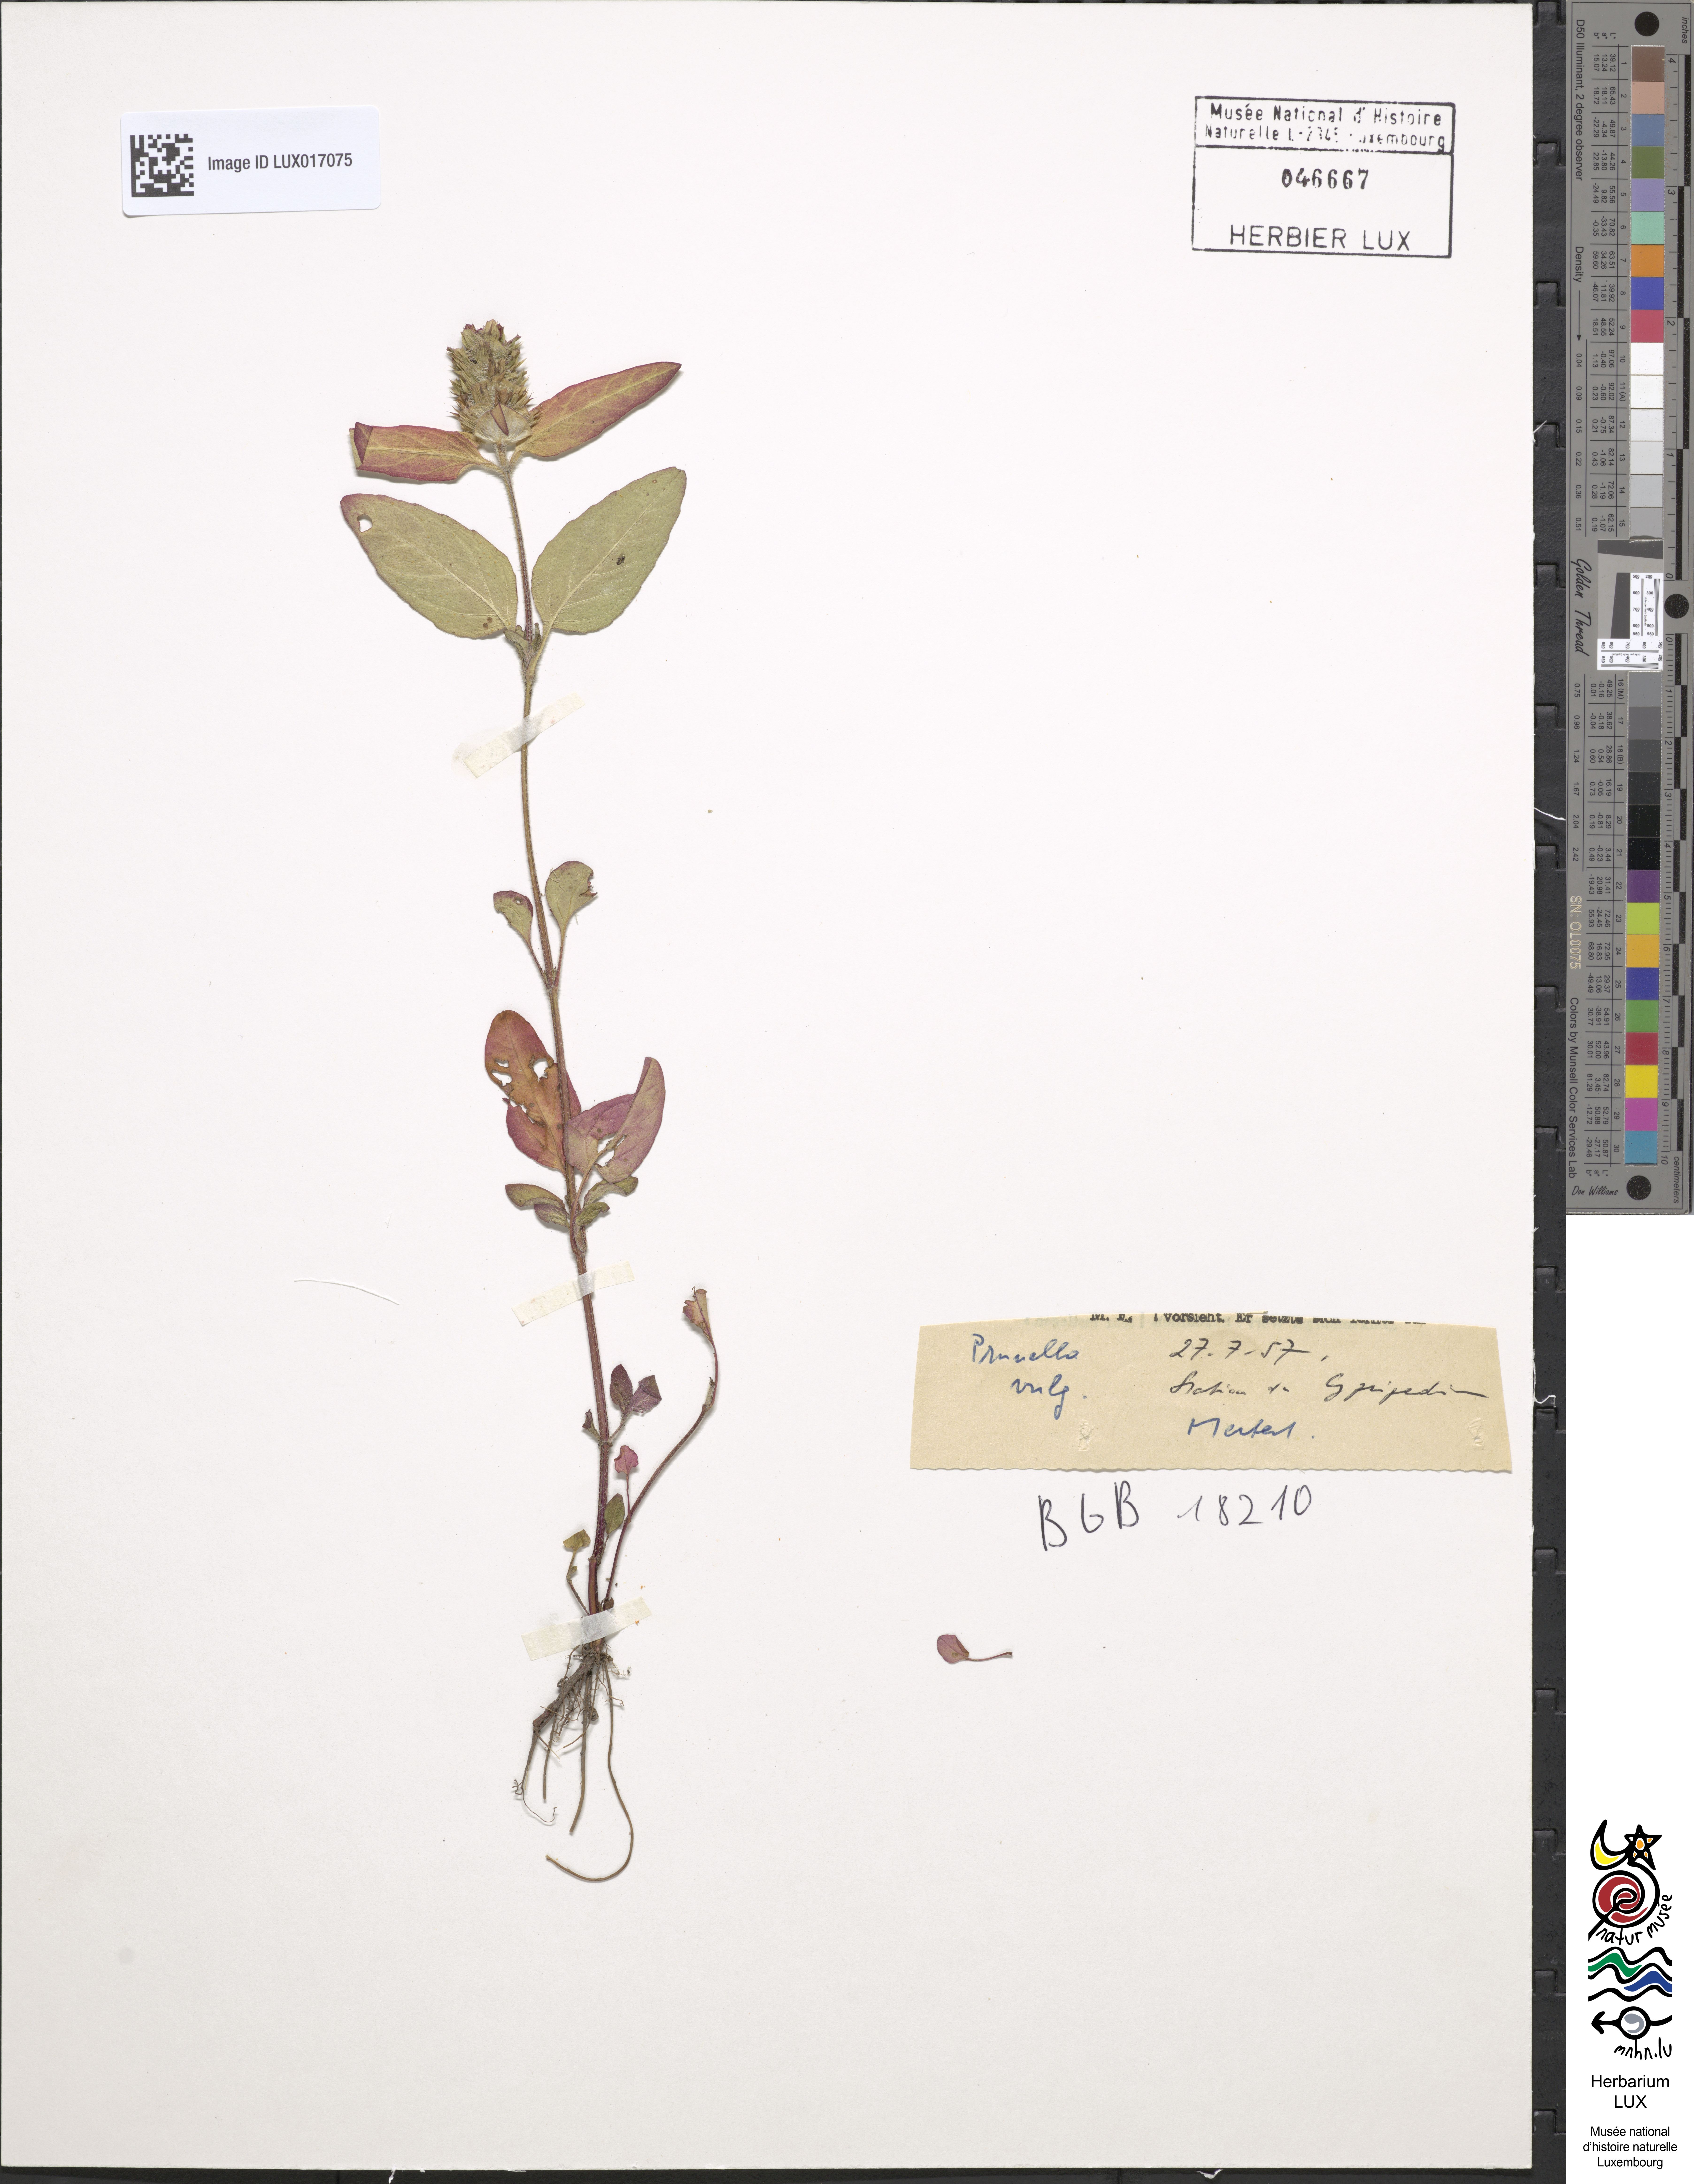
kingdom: Plantae
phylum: Tracheophyta
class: Magnoliopsida
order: Lamiales
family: Lamiaceae
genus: Prunella
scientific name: Prunella vulgaris
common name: Heal-all
